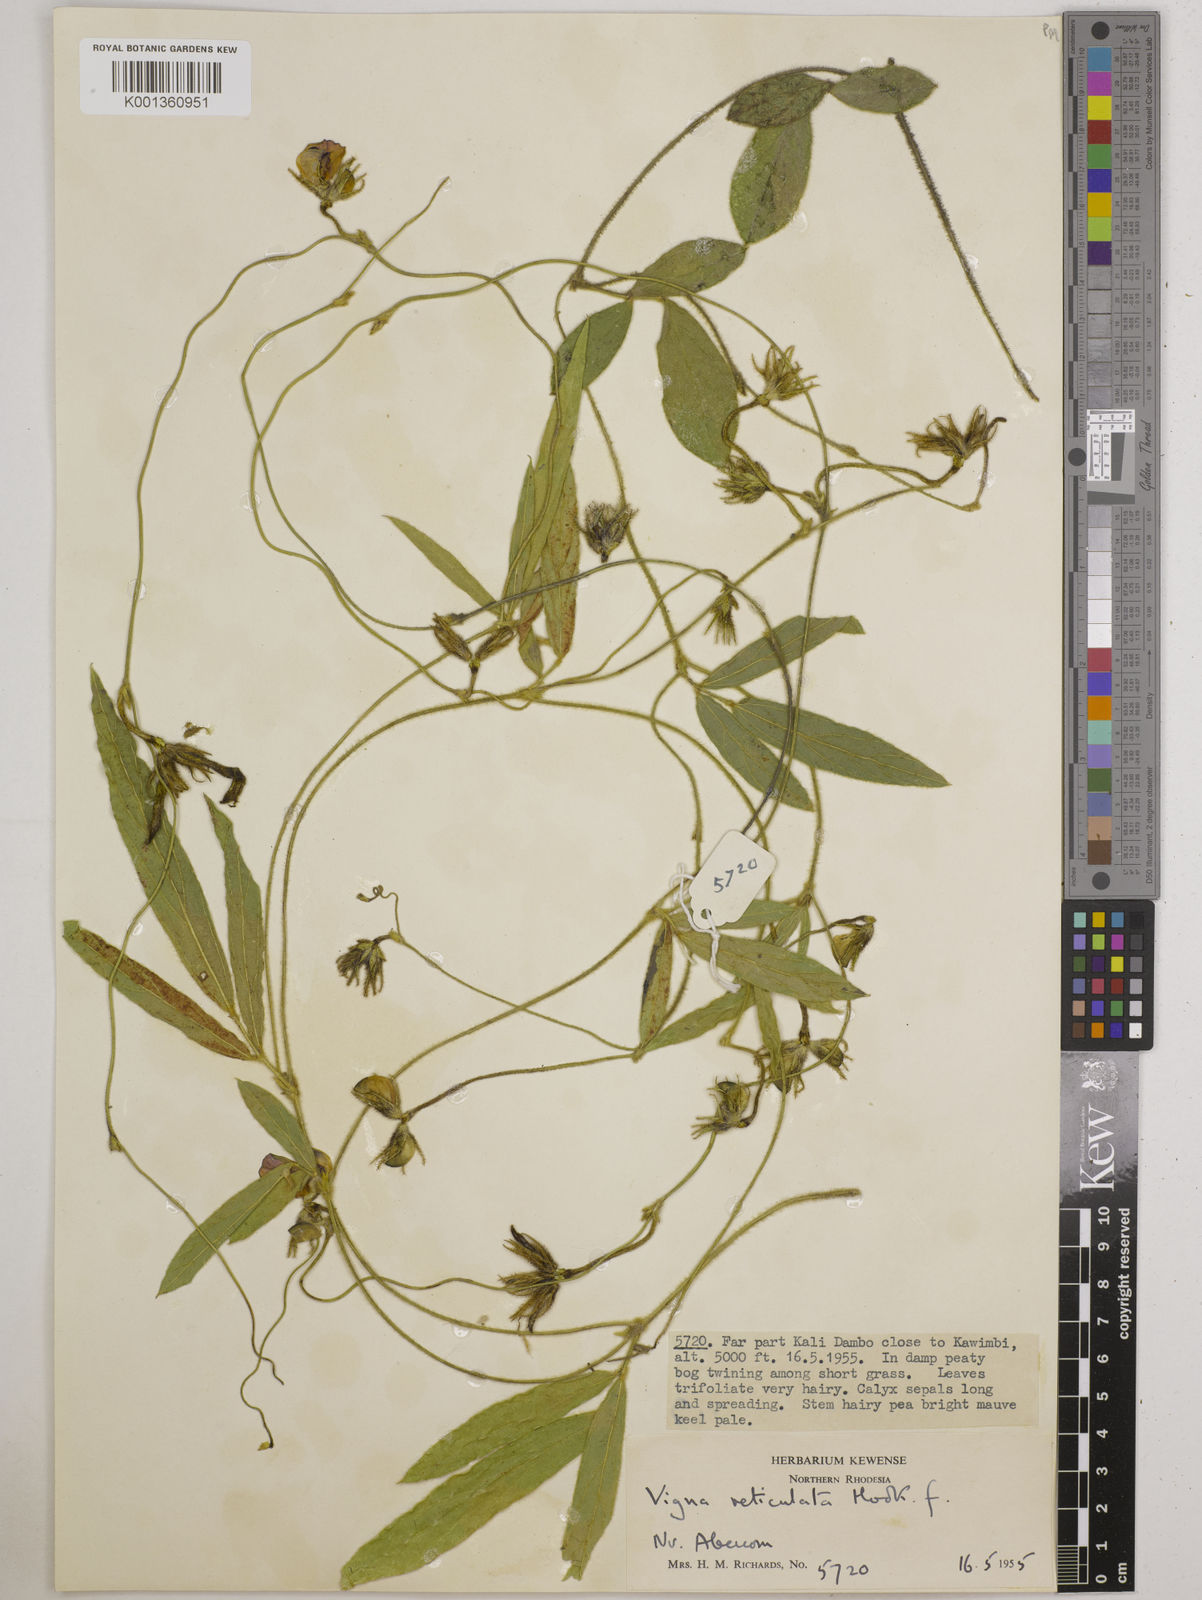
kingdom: Plantae
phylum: Tracheophyta
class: Magnoliopsida
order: Fabales
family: Fabaceae
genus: Vigna
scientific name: Vigna reticulata
